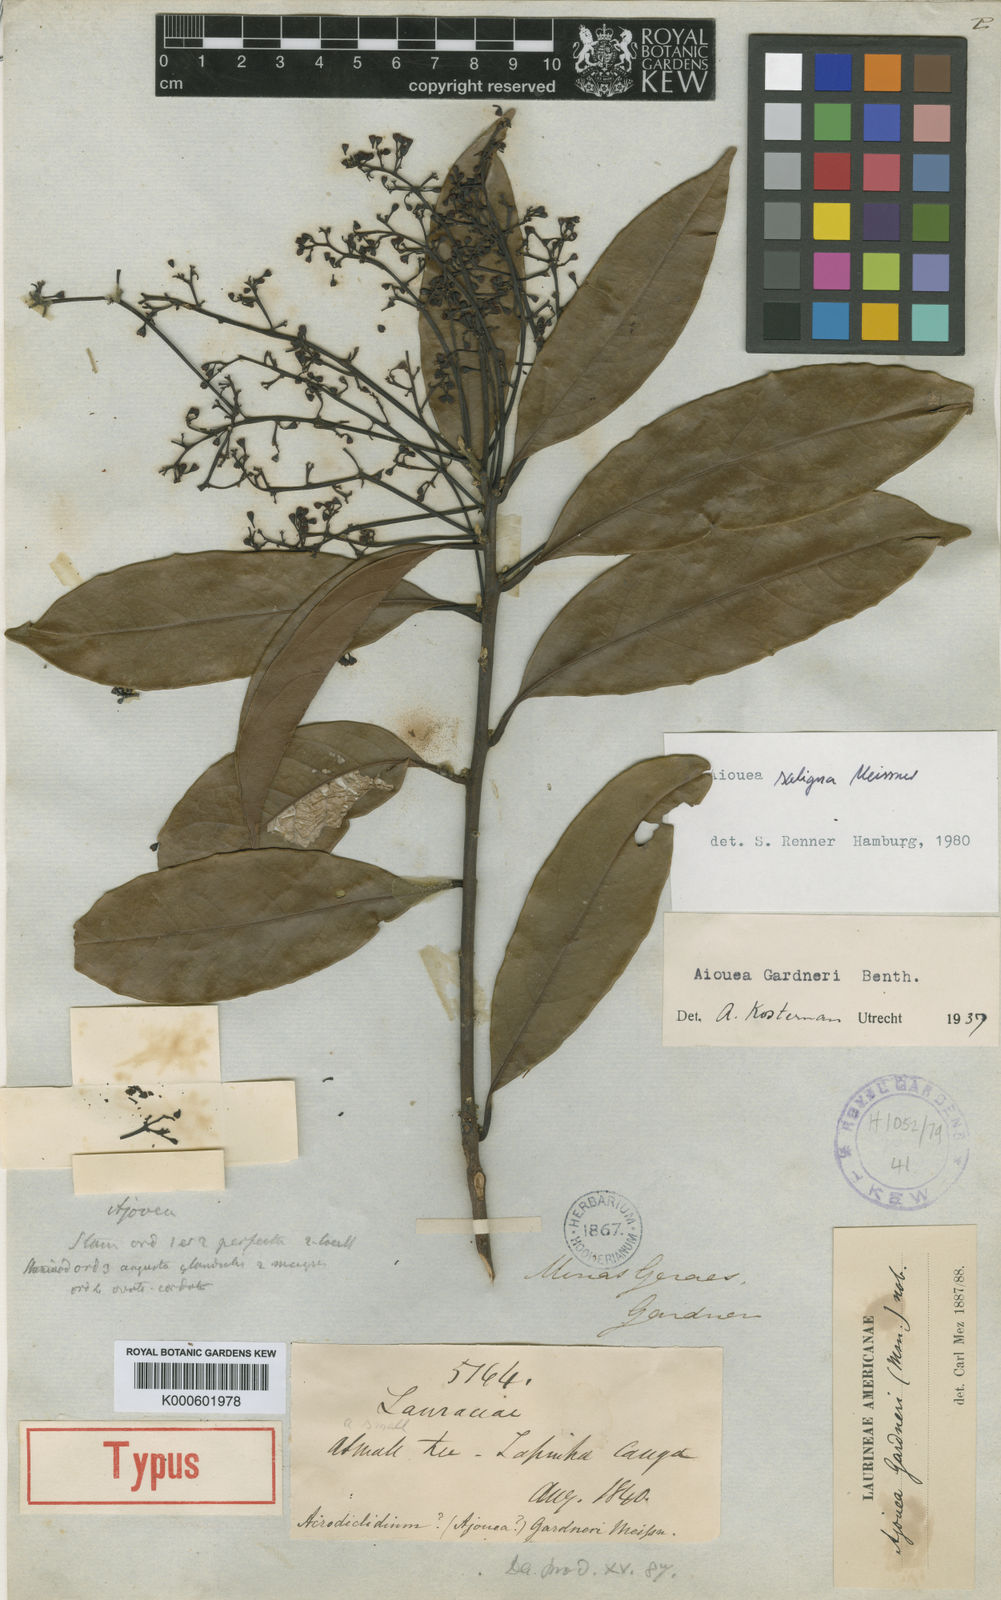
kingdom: Plantae
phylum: Tracheophyta
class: Magnoliopsida
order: Laurales
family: Lauraceae
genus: Aiouea
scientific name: Aiouea saligna
